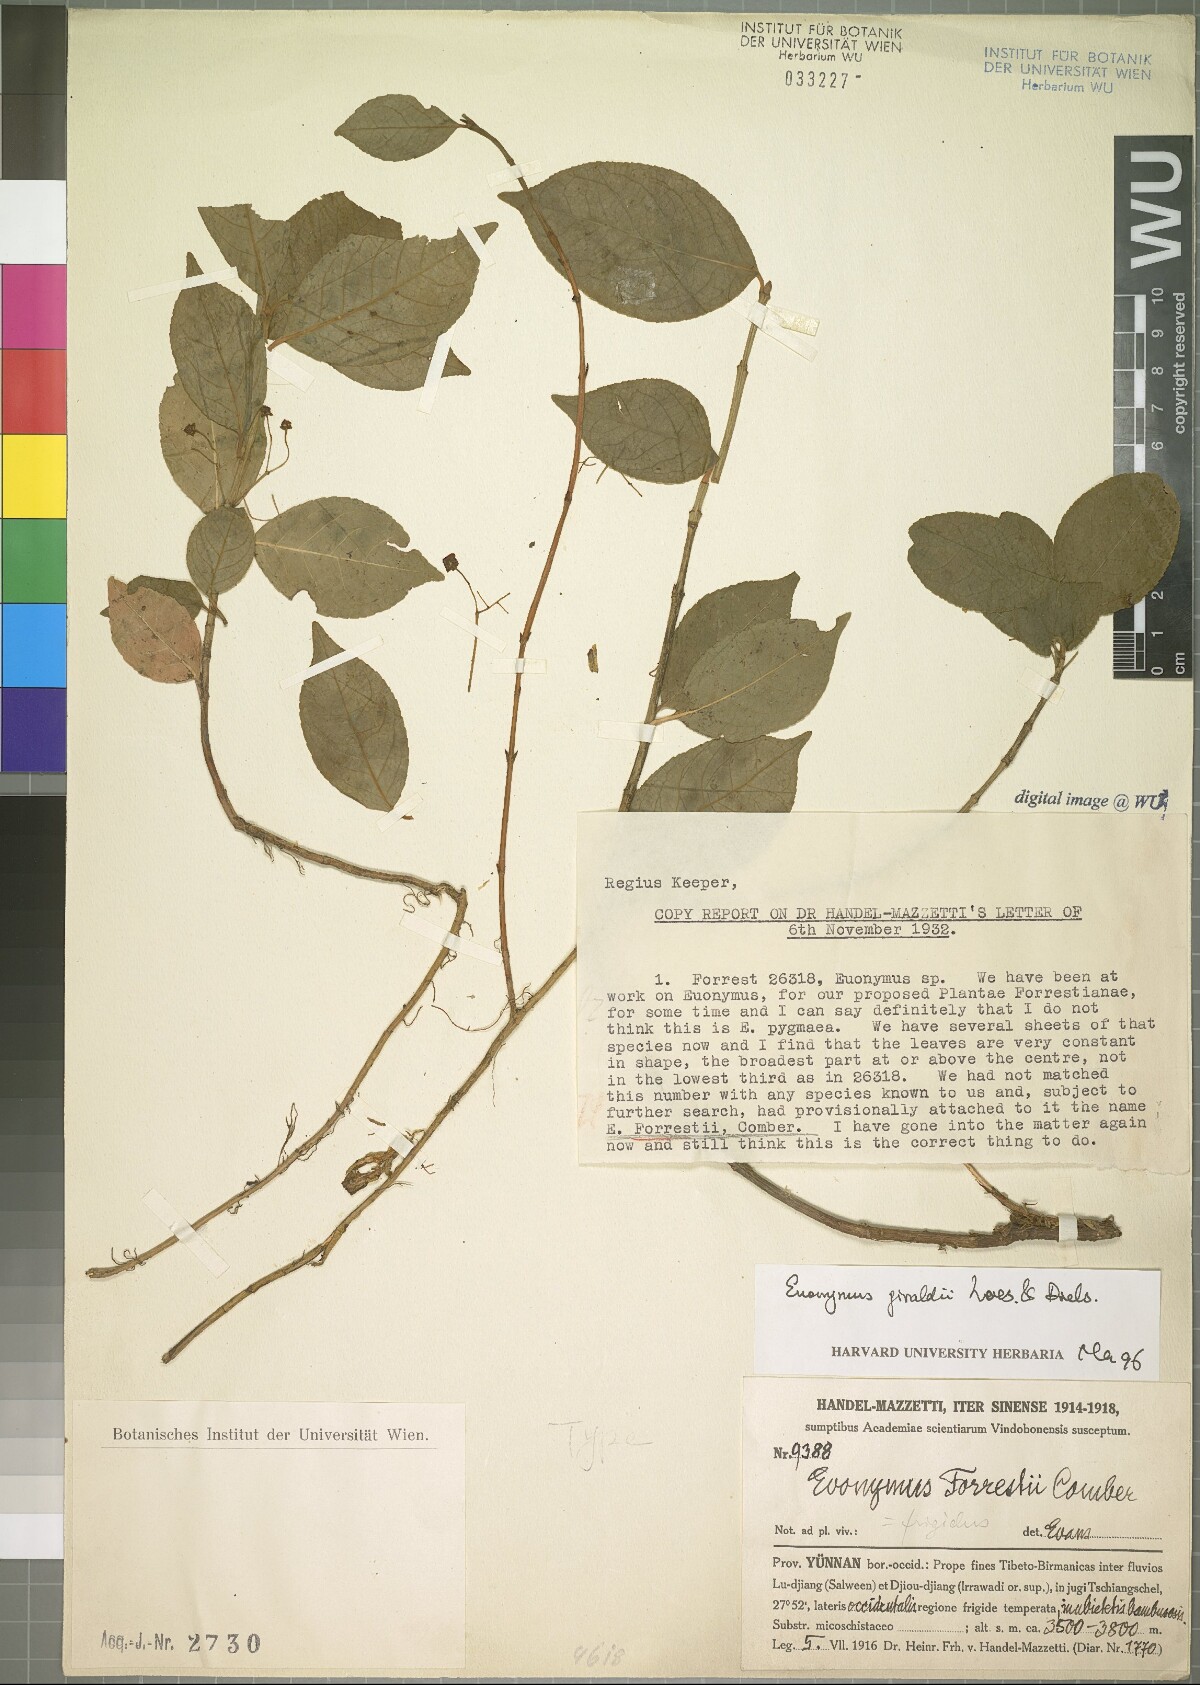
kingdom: Plantae
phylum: Tracheophyta
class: Magnoliopsida
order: Celastrales
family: Celastraceae
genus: Euonymus
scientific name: Euonymus giraldii
